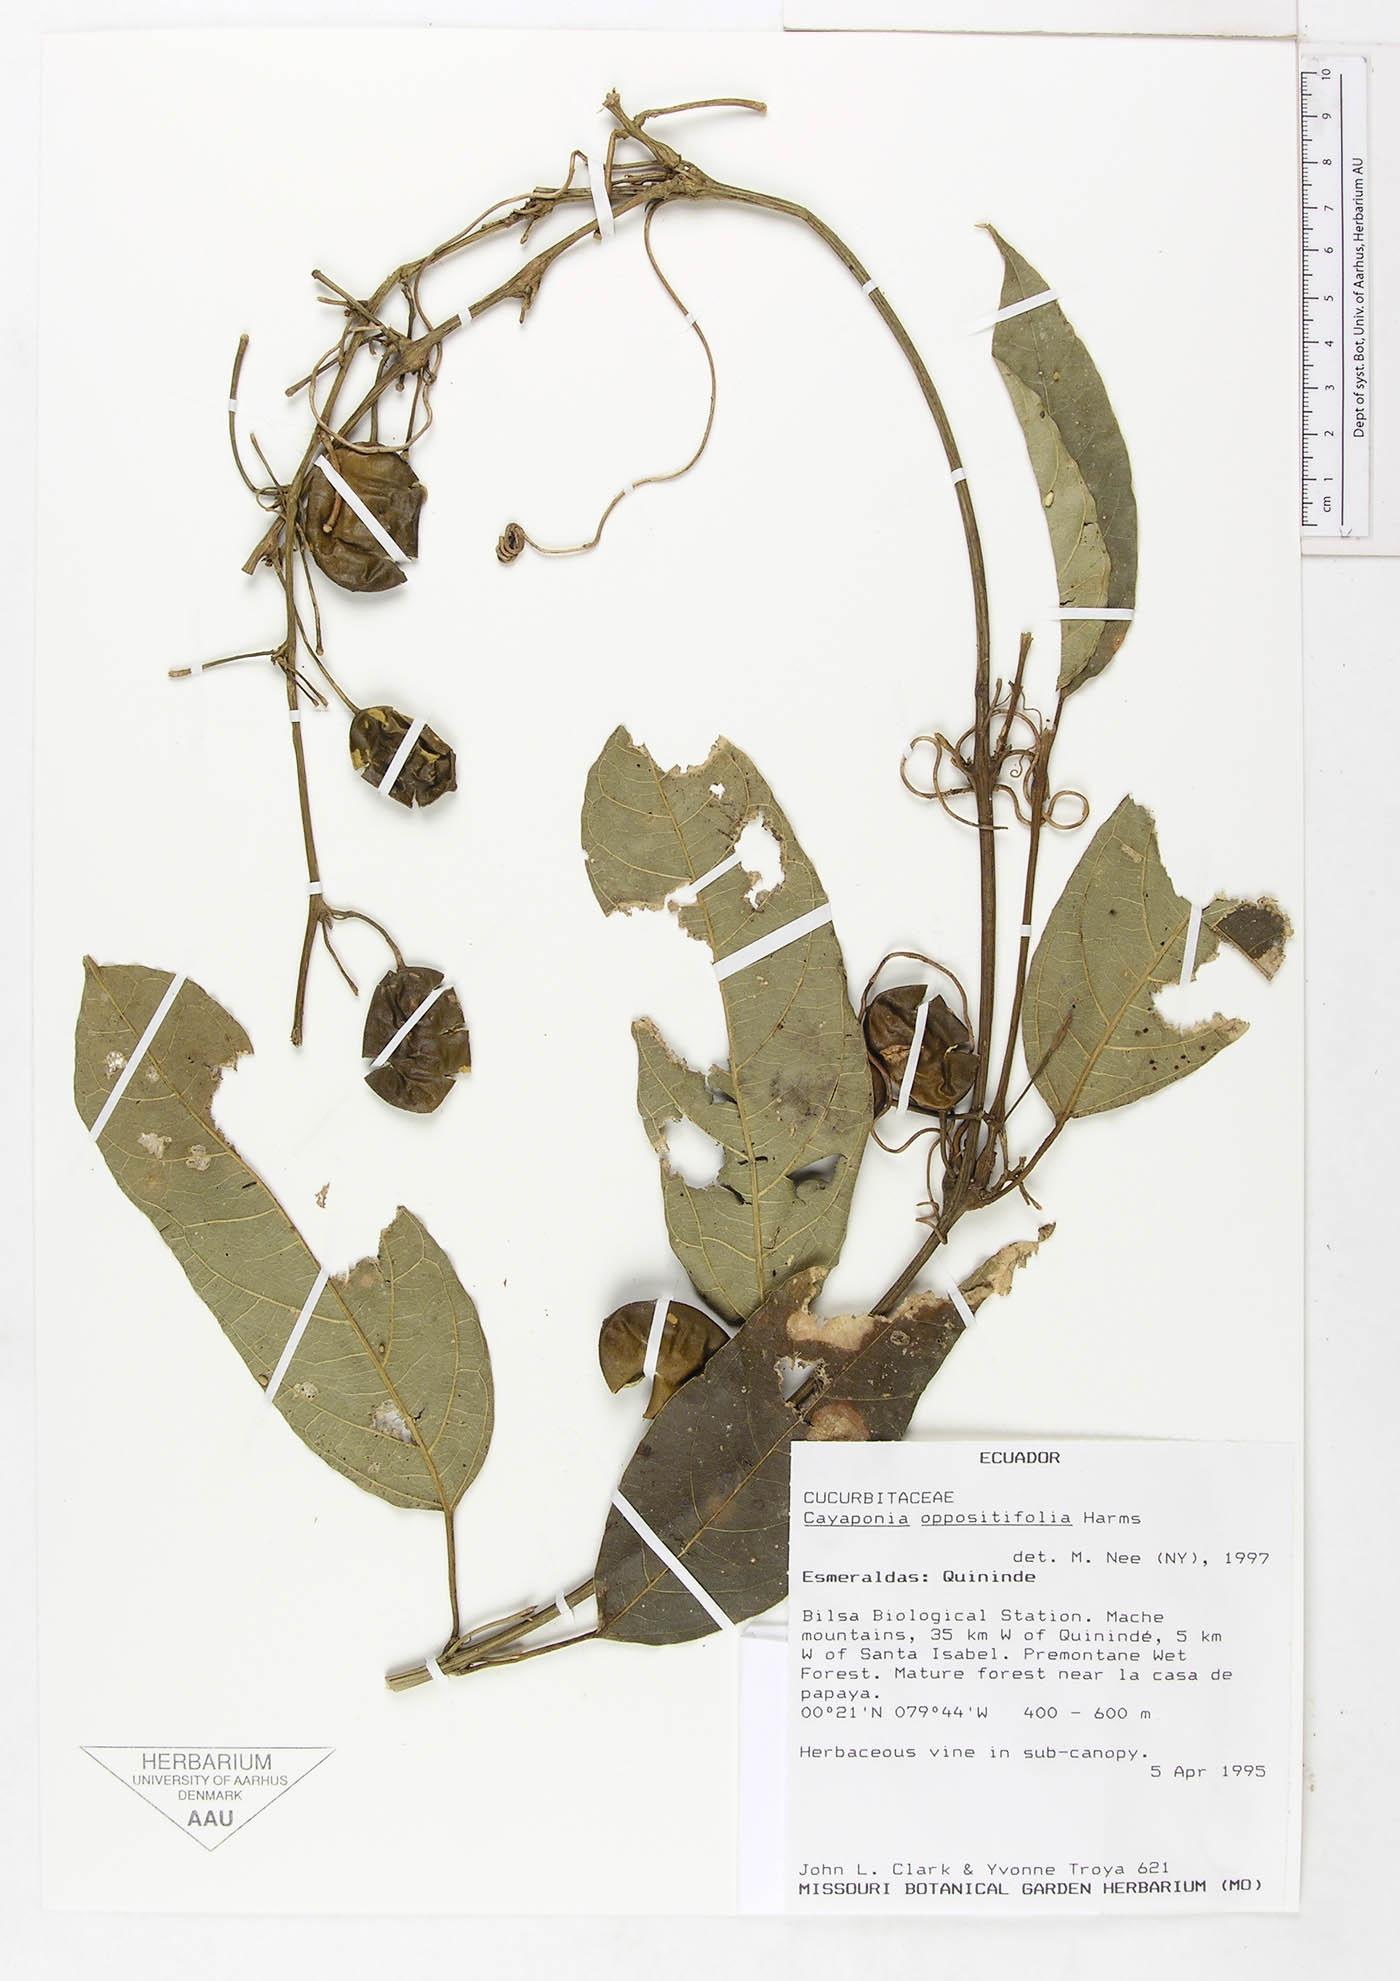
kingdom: Plantae
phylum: Tracheophyta
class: Magnoliopsida
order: Cucurbitales
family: Cucurbitaceae
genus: Cayaponia
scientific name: Cayaponia oppositifolia
